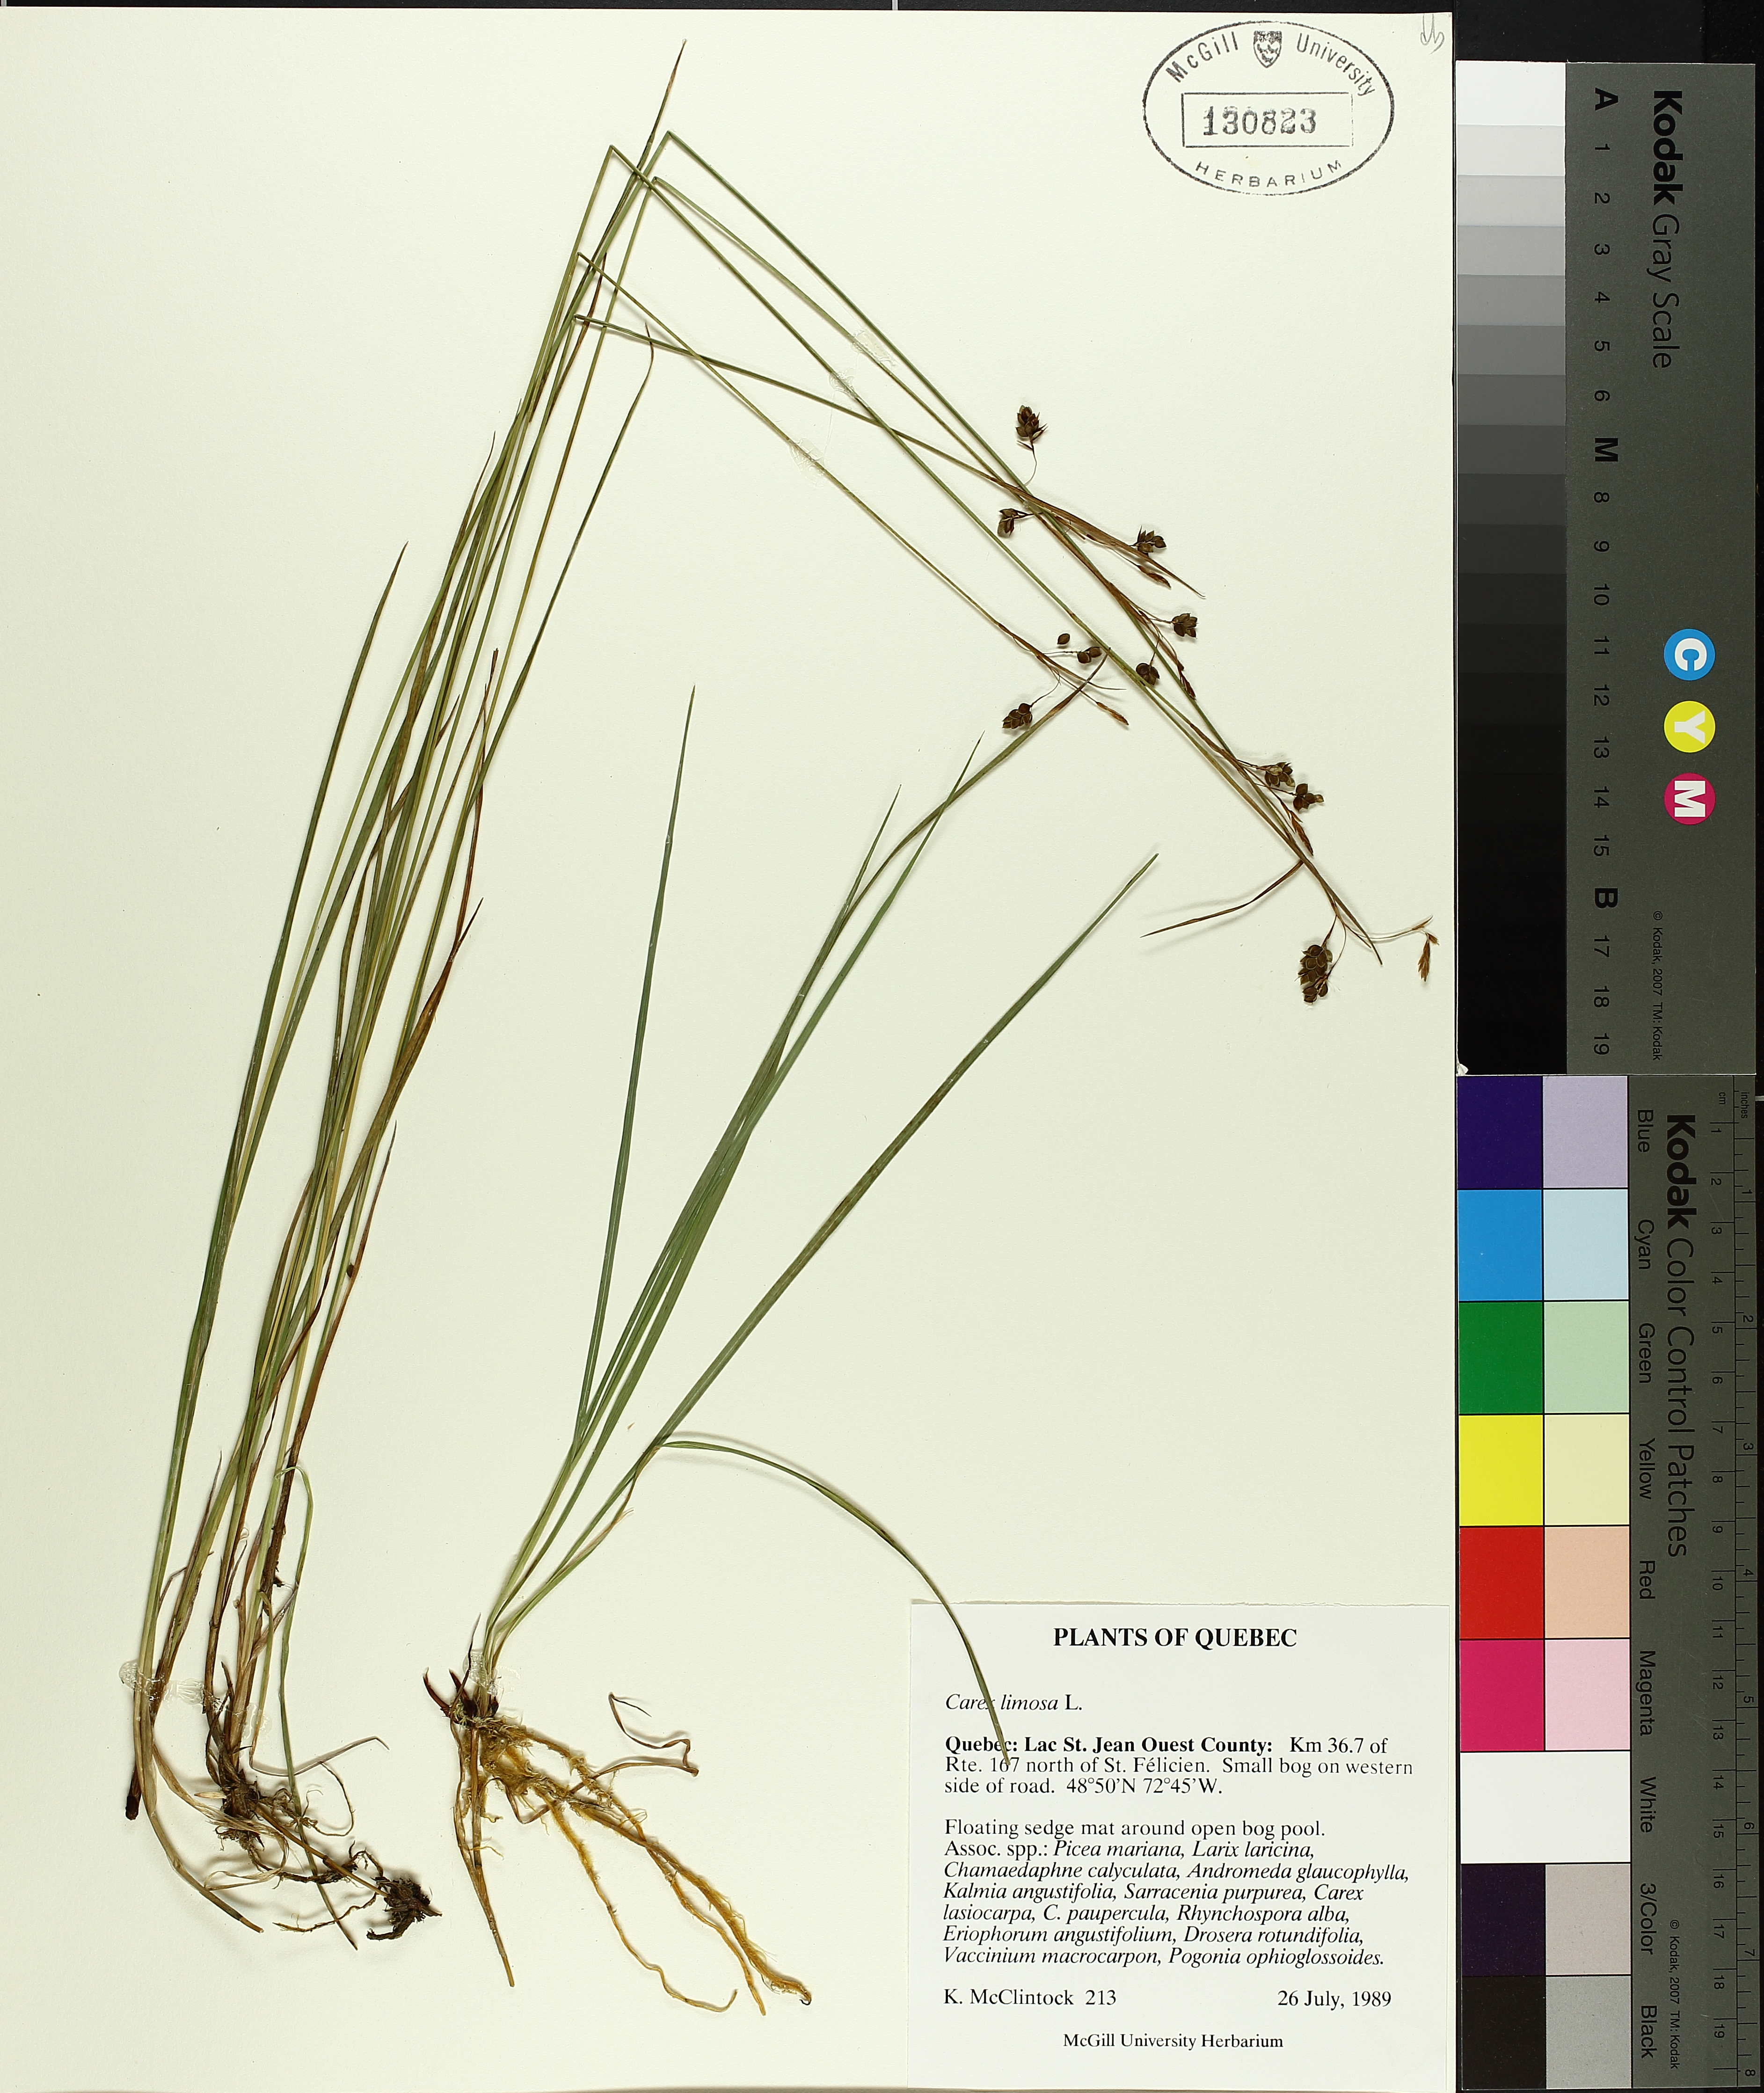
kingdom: Plantae
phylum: Tracheophyta
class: Liliopsida
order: Poales
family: Cyperaceae
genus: Carex
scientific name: Carex limosa
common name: Bog sedge
